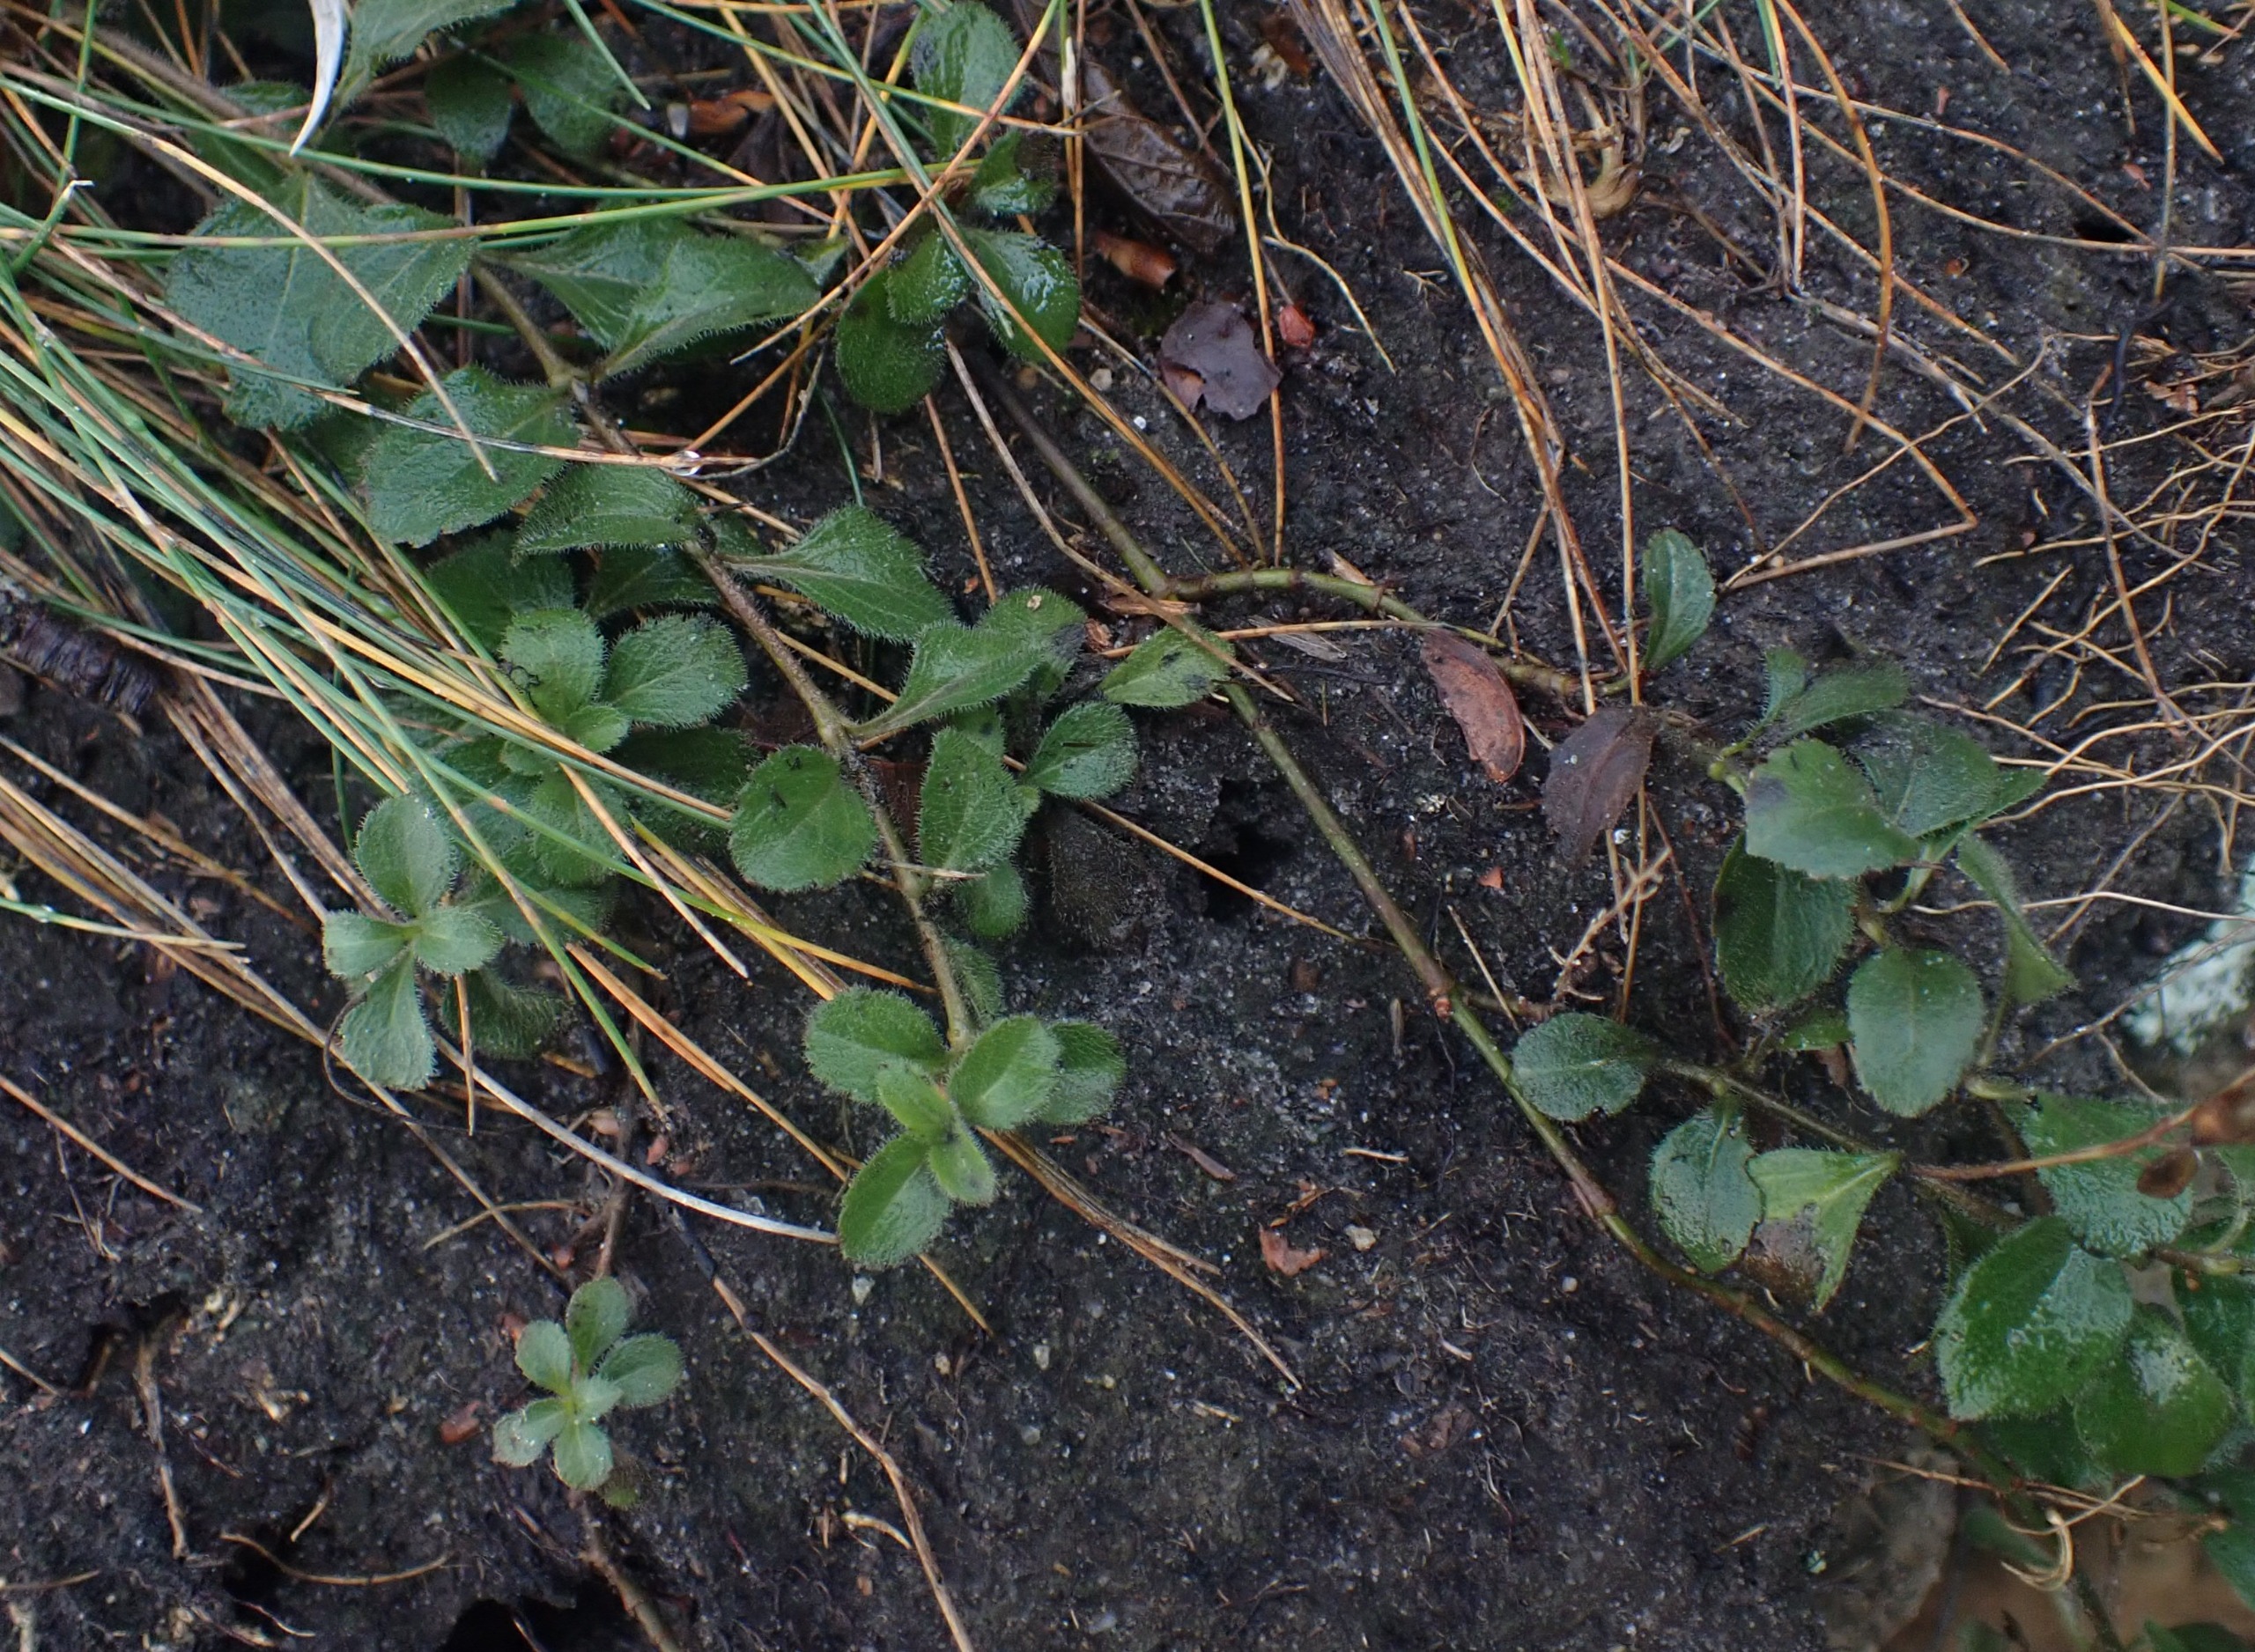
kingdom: Plantae
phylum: Tracheophyta
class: Magnoliopsida
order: Lamiales
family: Plantaginaceae
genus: Veronica
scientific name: Veronica officinalis
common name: Læge-ærenpris
